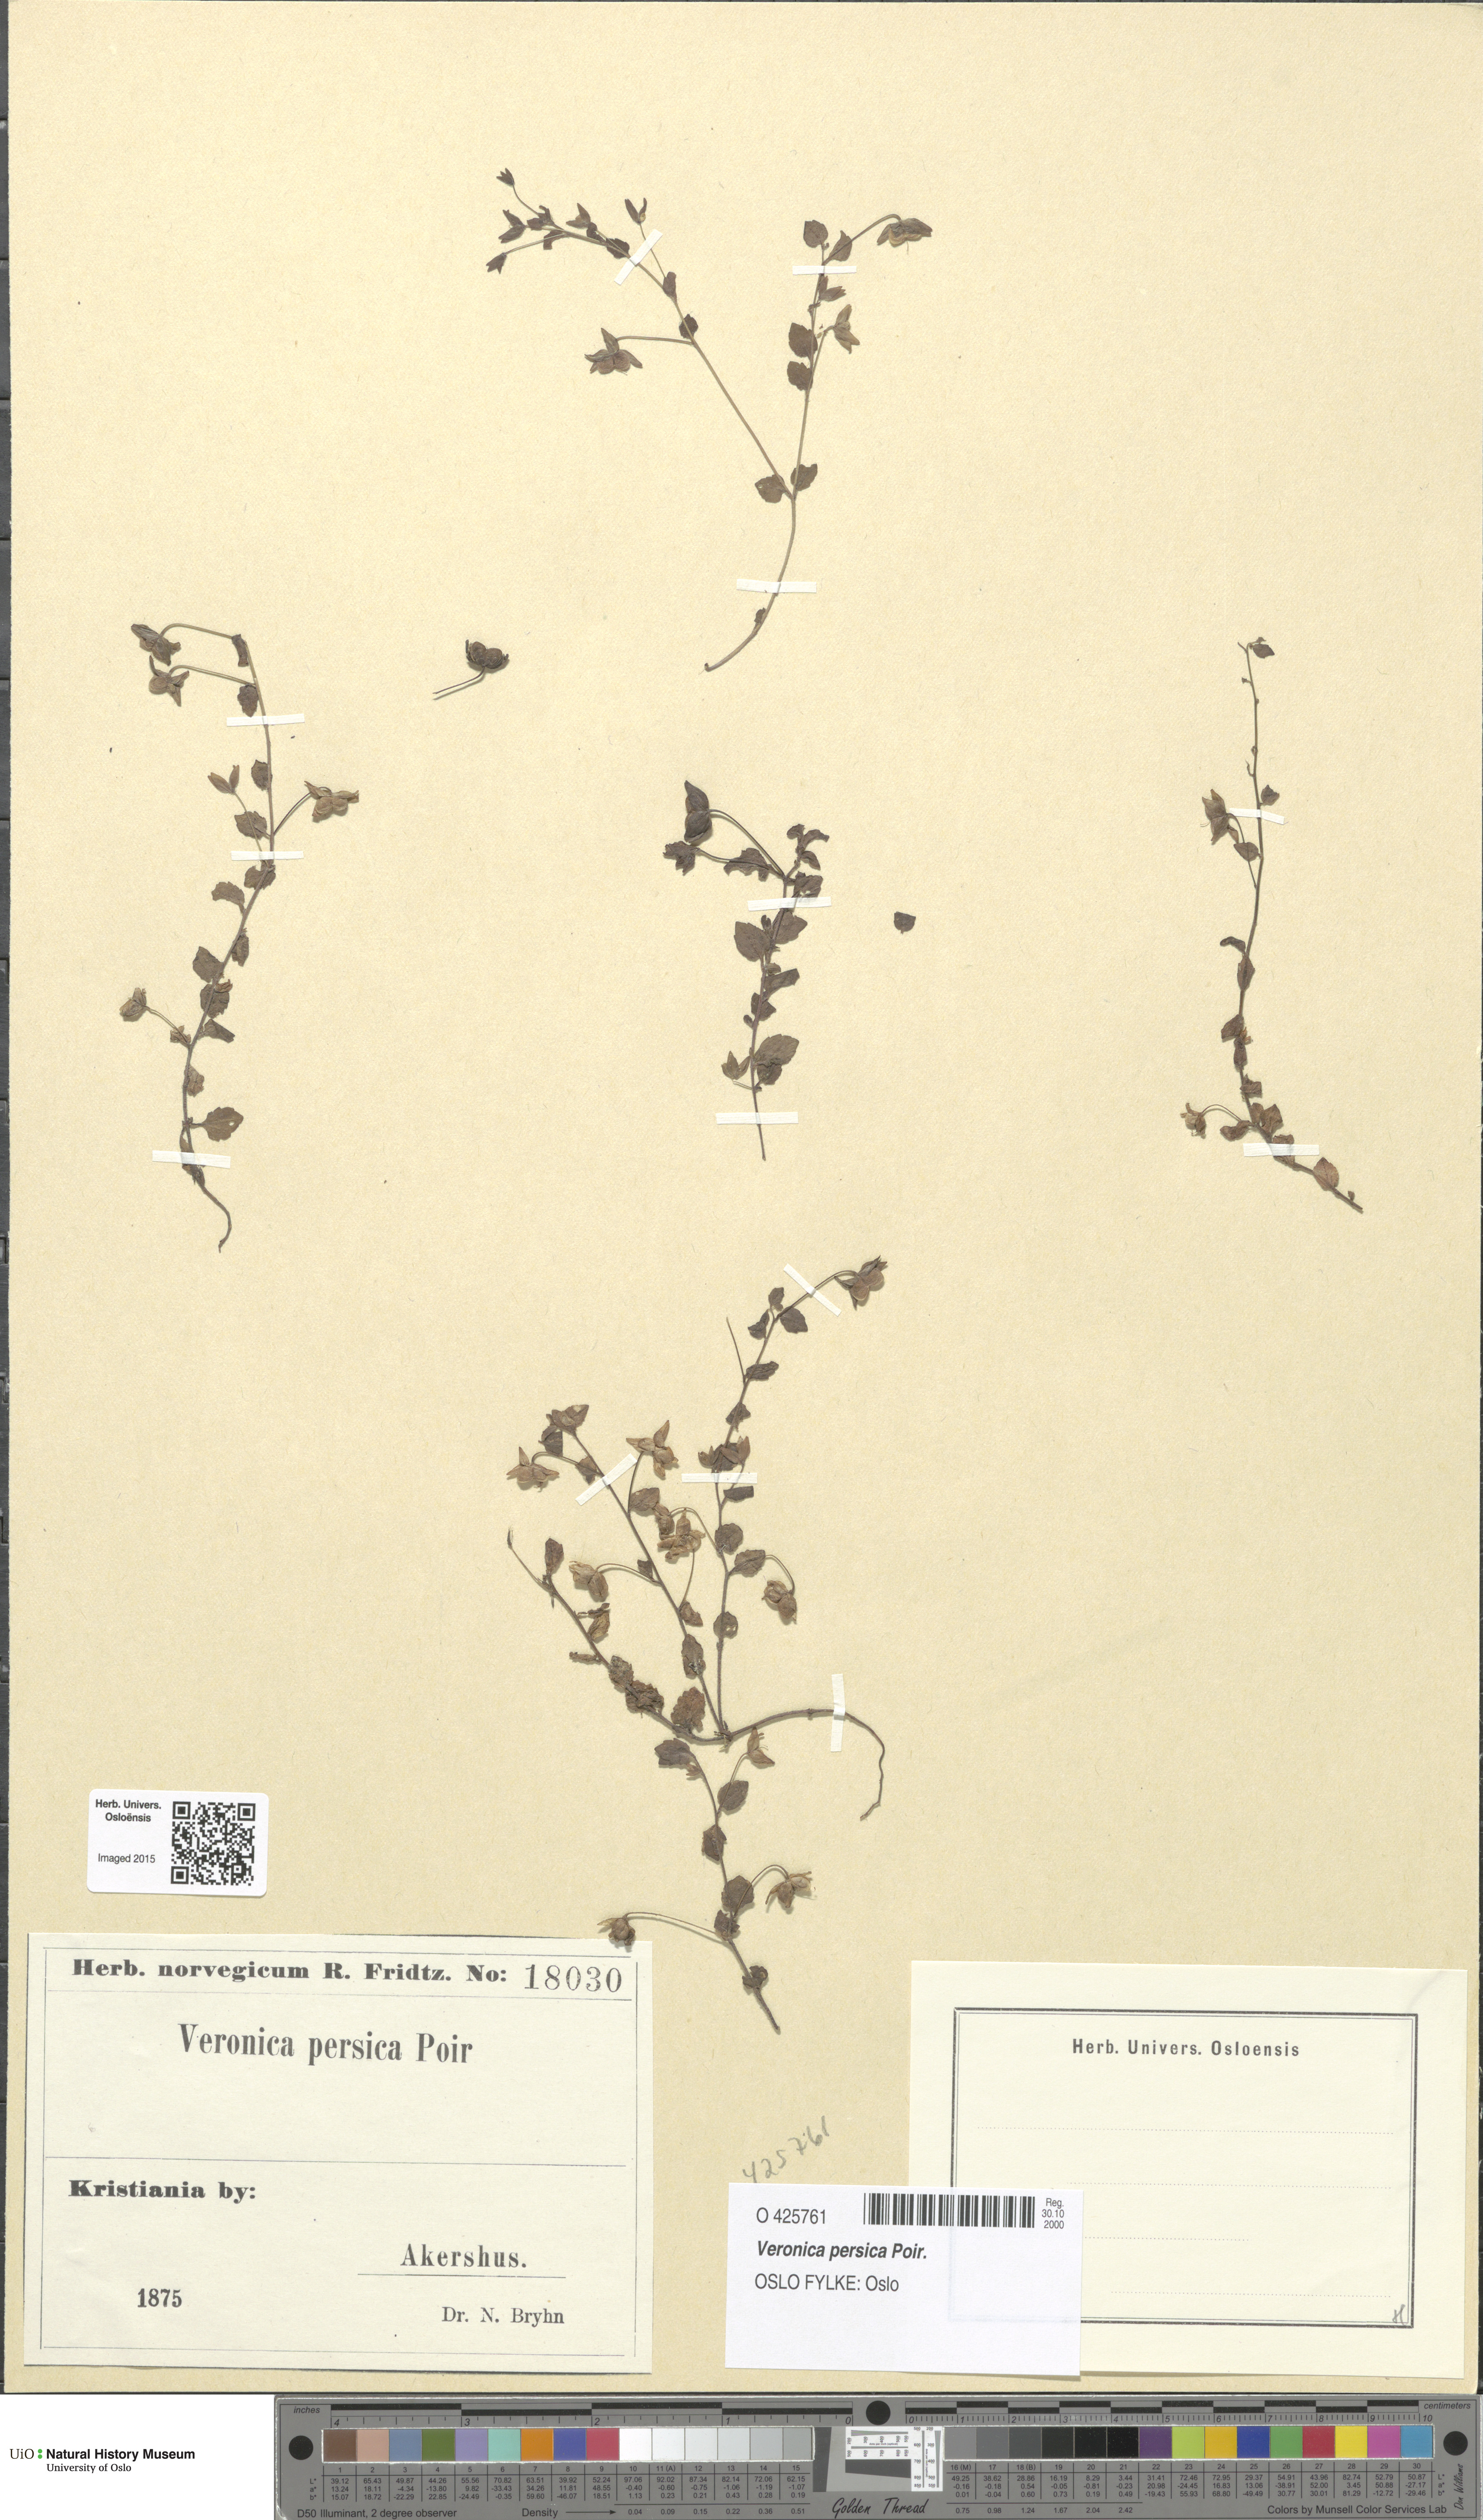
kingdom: Plantae
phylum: Tracheophyta
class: Magnoliopsida
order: Lamiales
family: Plantaginaceae
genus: Veronica
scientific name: Veronica persica
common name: Common field-speedwell
